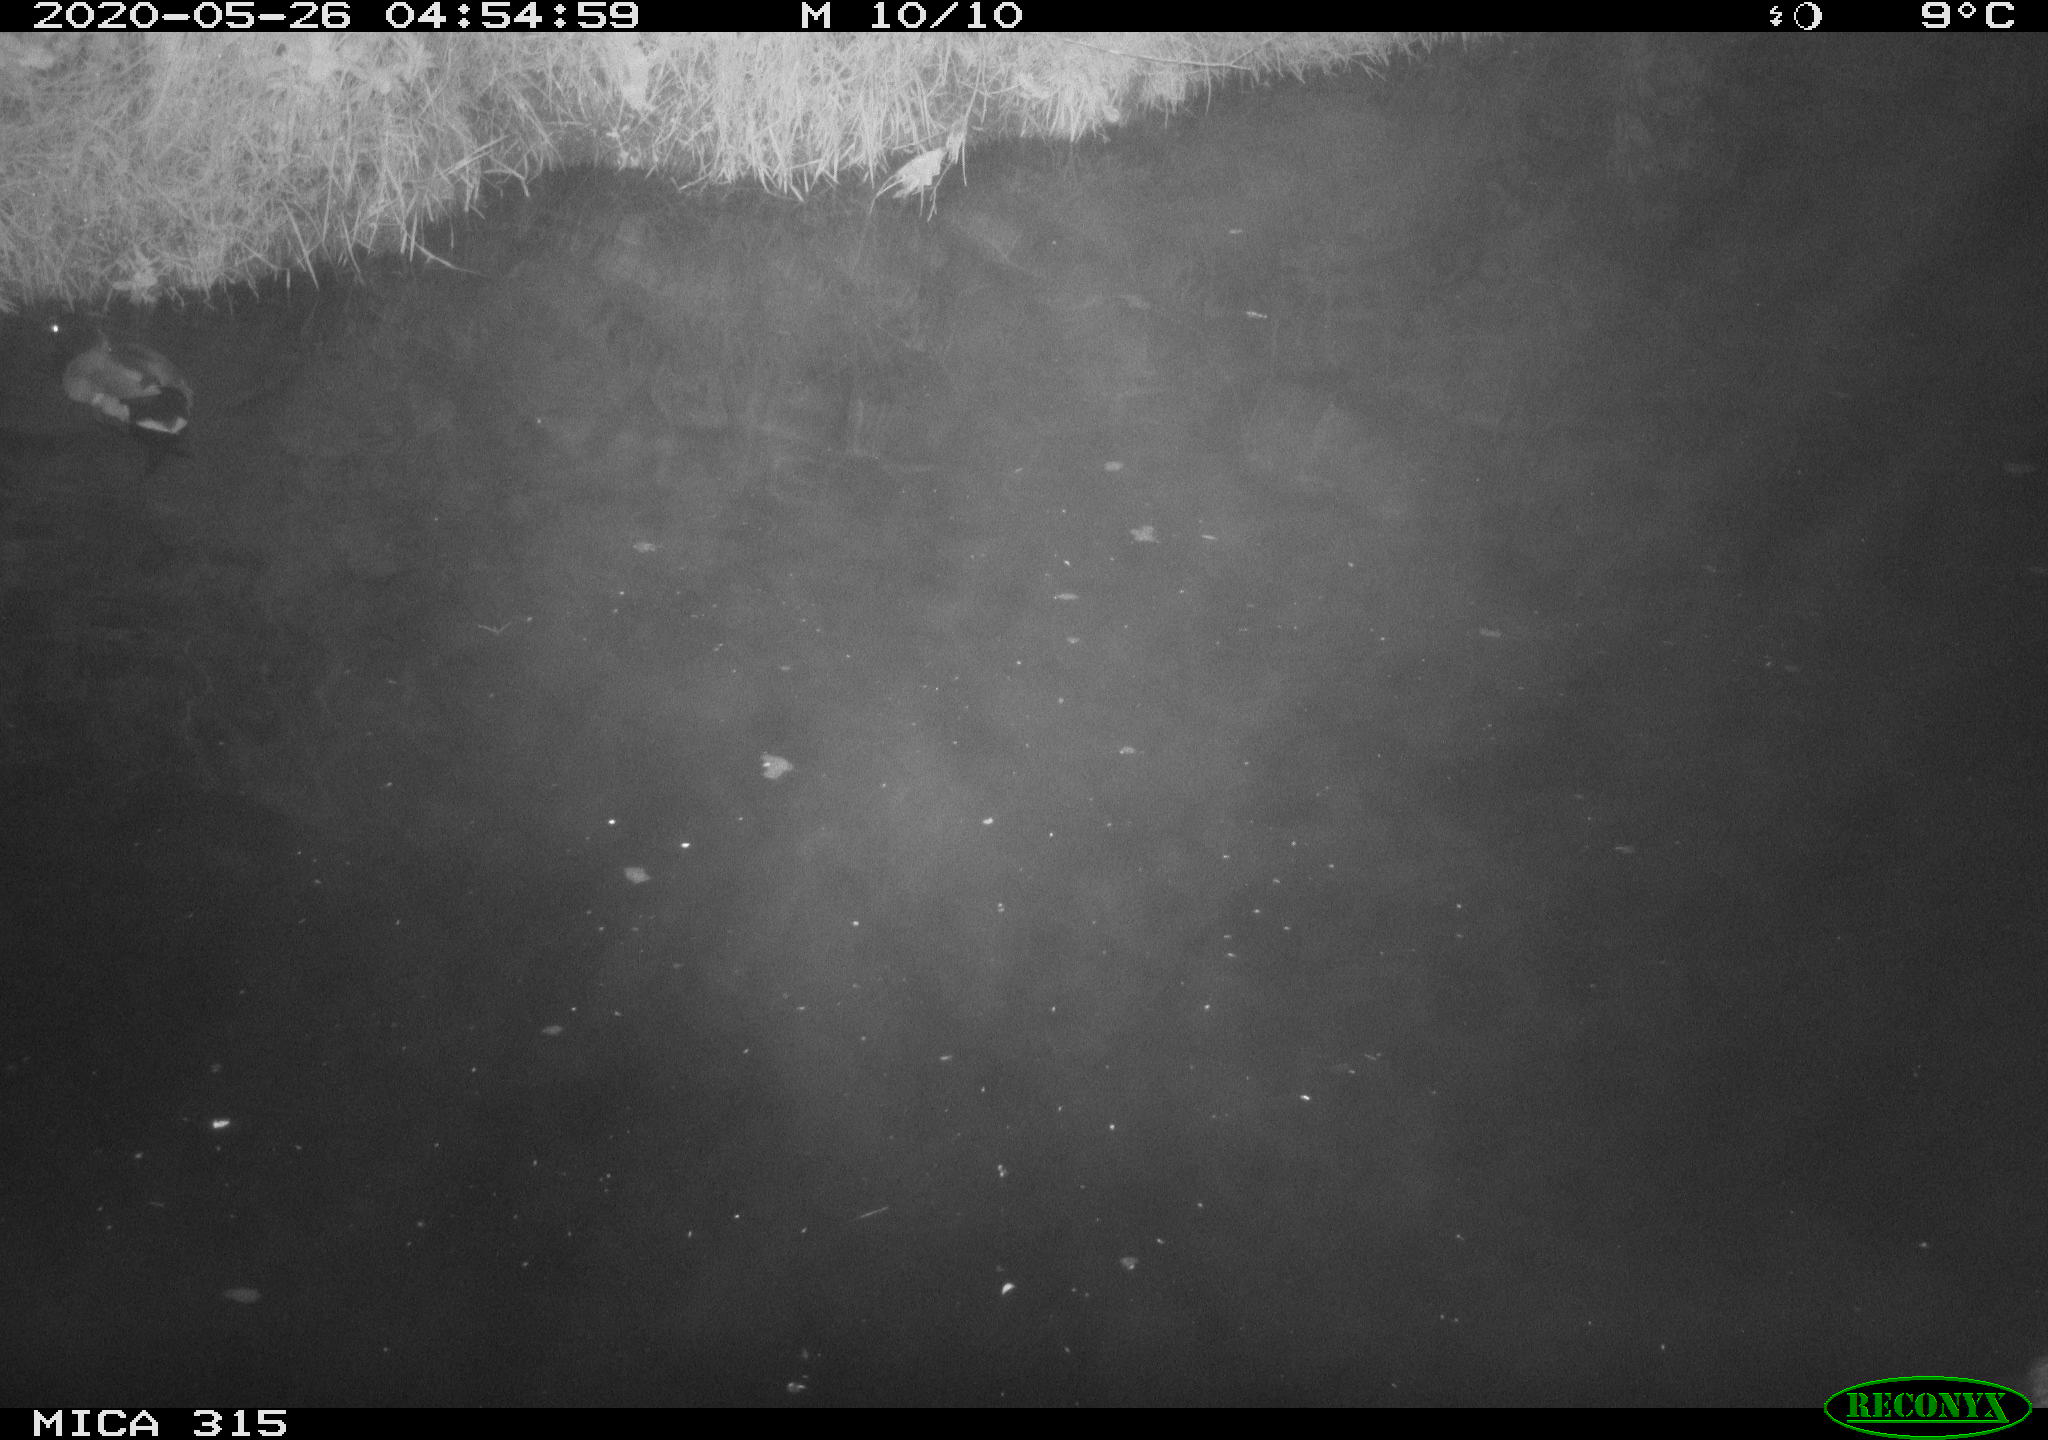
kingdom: Animalia
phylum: Chordata
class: Aves
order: Anseriformes
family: Anatidae
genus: Anas
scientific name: Anas platyrhynchos
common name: Mallard
